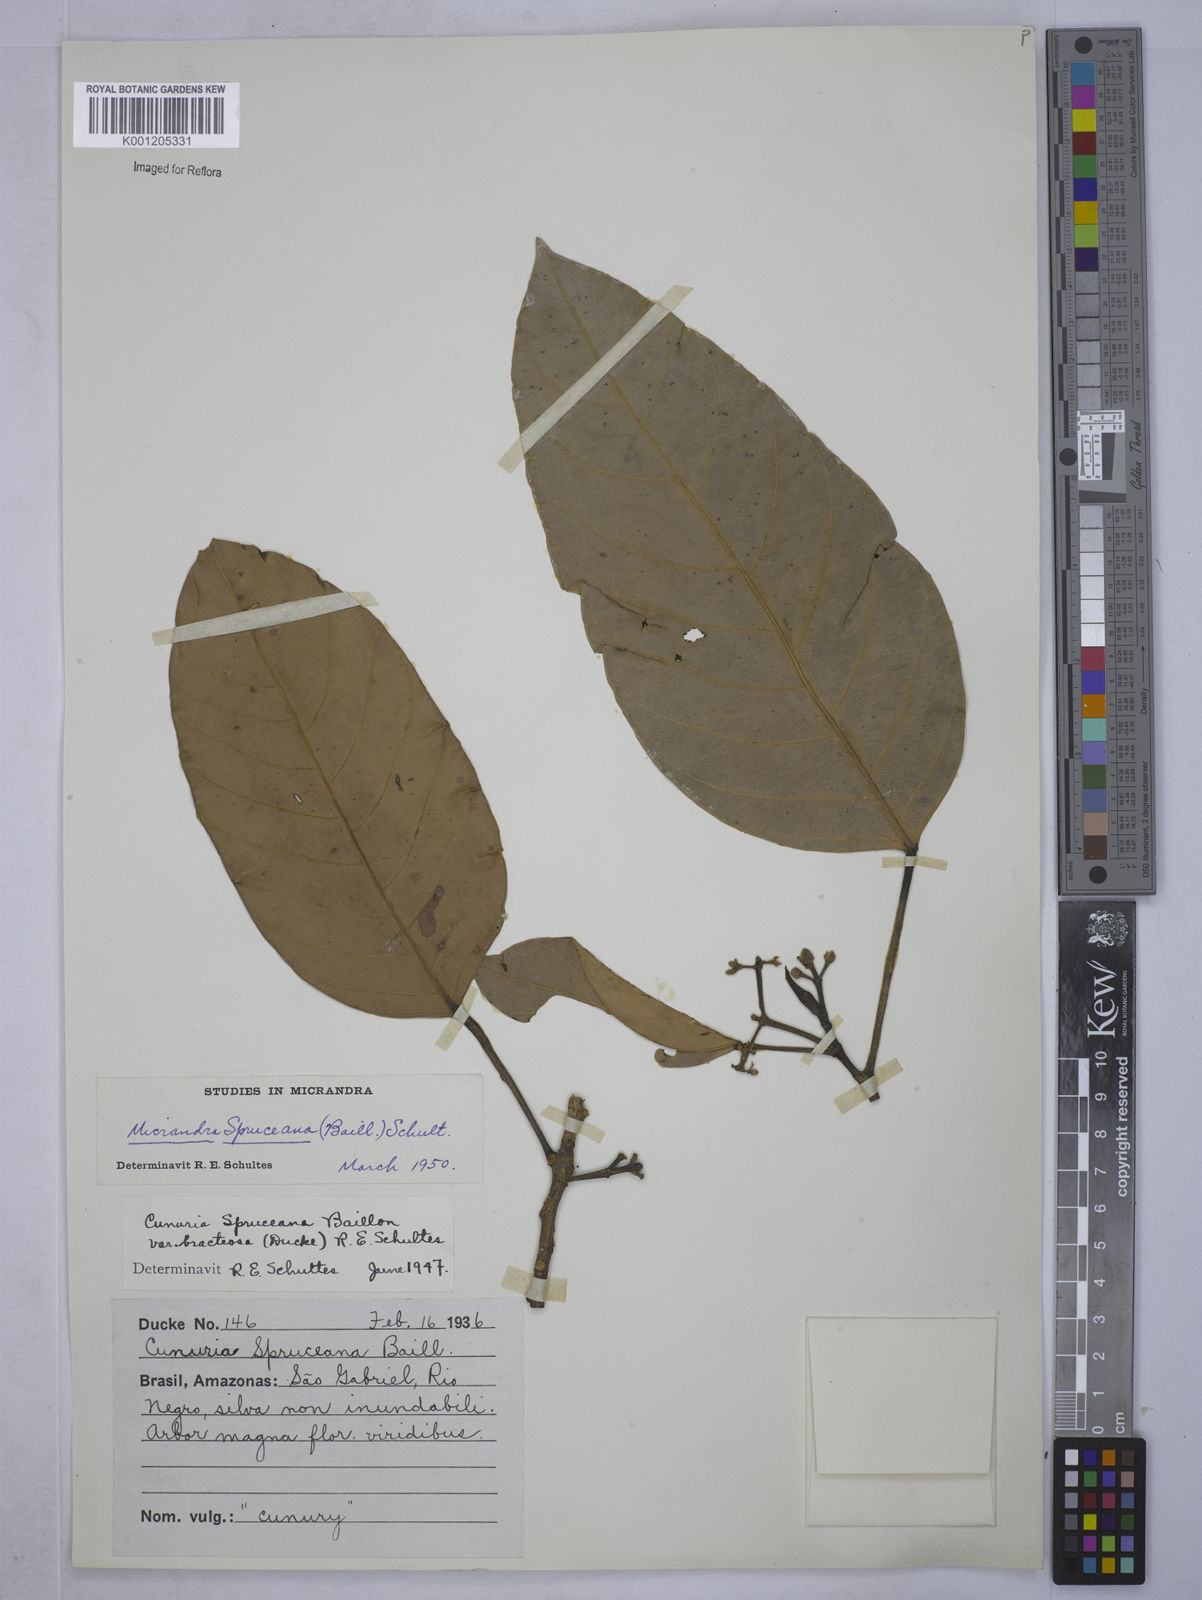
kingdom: Plantae
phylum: Tracheophyta
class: Magnoliopsida
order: Malpighiales
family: Euphorbiaceae
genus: Micrandra
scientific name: Micrandra spruceana
